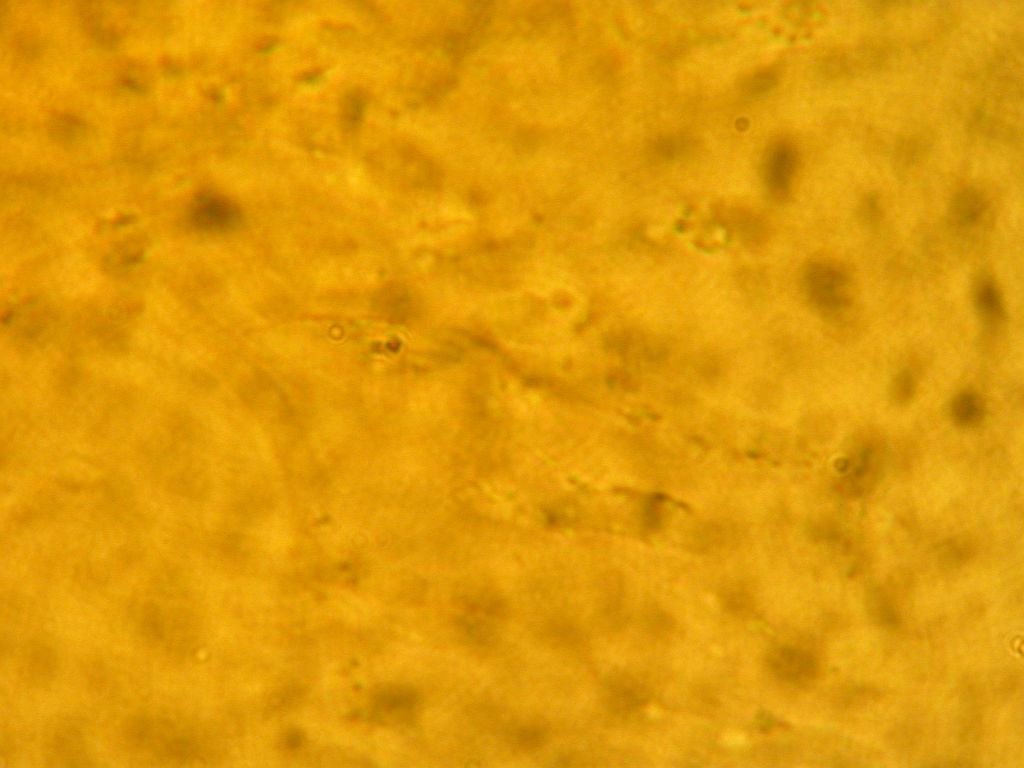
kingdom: Fungi
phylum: Basidiomycota
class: Agaricomycetes
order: Polyporales
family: Incrustoporiaceae
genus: Skeletocutis
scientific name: Skeletocutis kuehneri
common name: smalsporet krystalporesvamp
